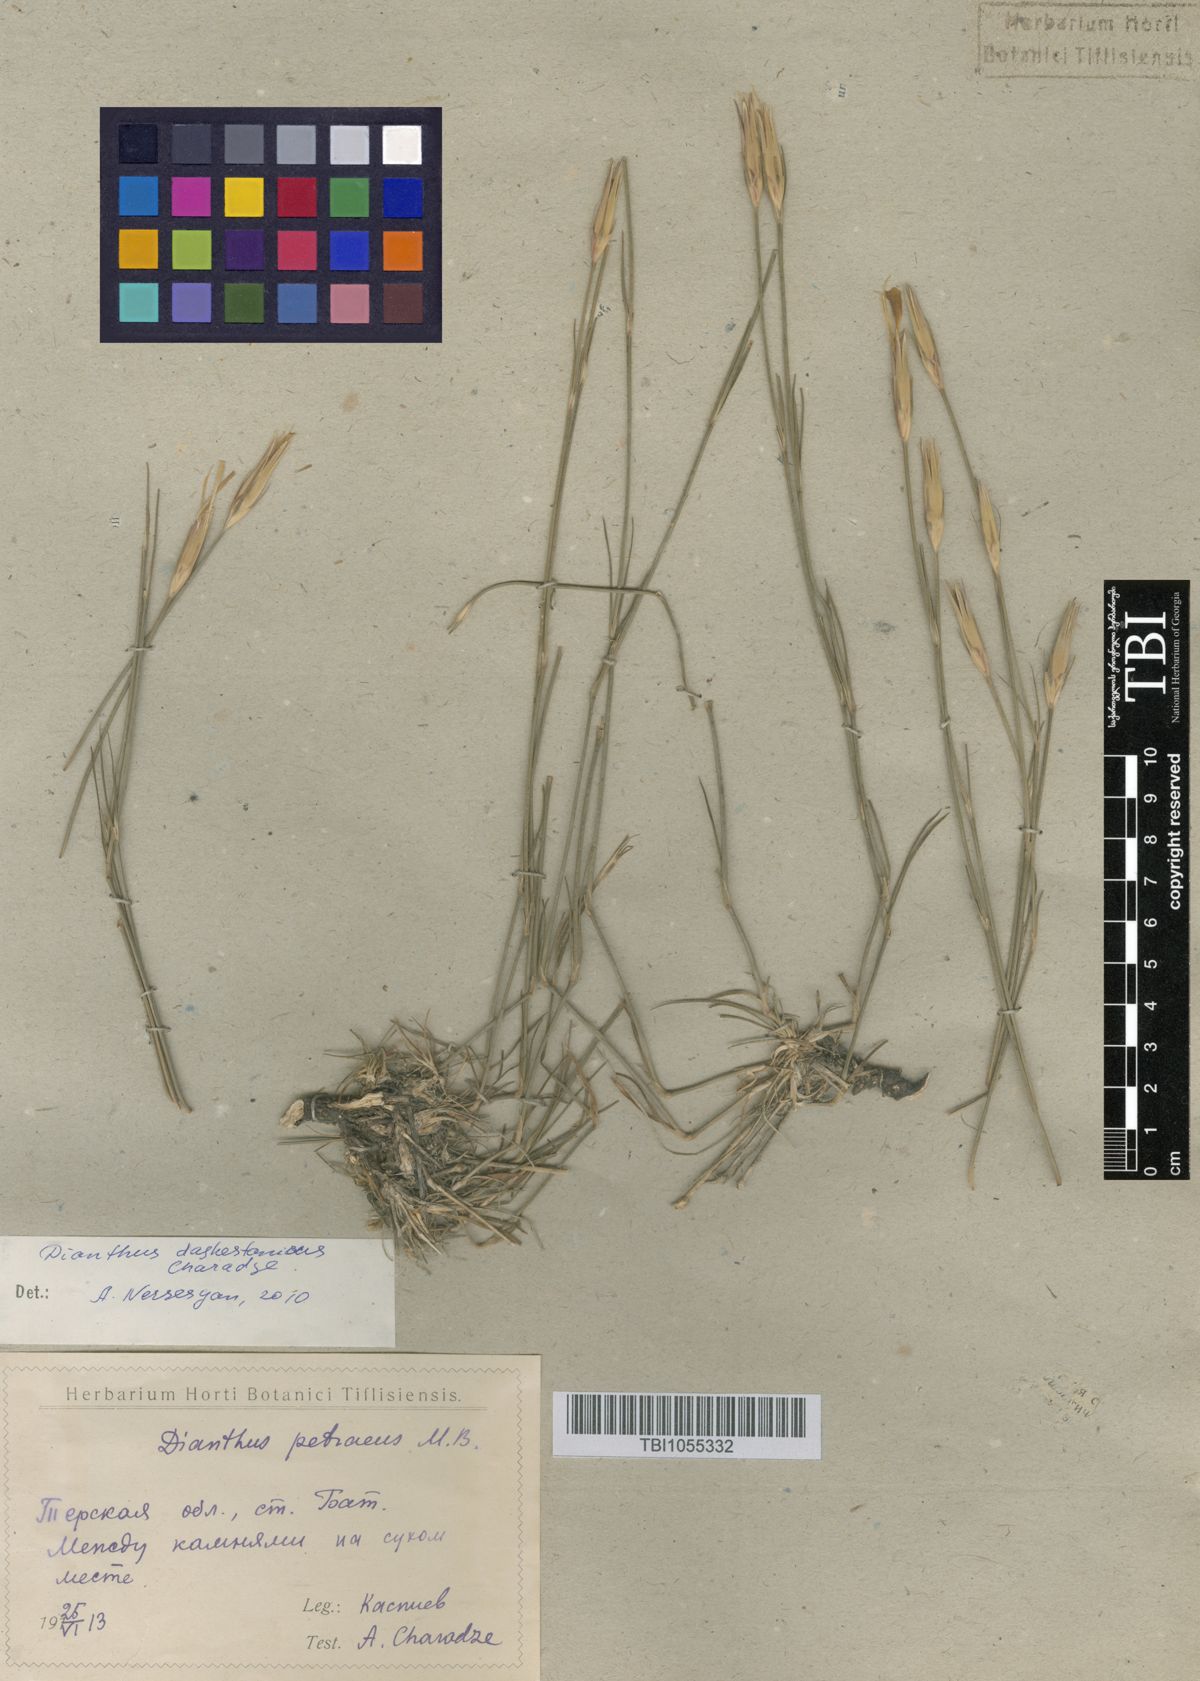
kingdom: Plantae
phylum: Tracheophyta
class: Magnoliopsida
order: Caryophyllales
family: Caryophyllaceae
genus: Dianthus
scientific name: Dianthus cretaceus
